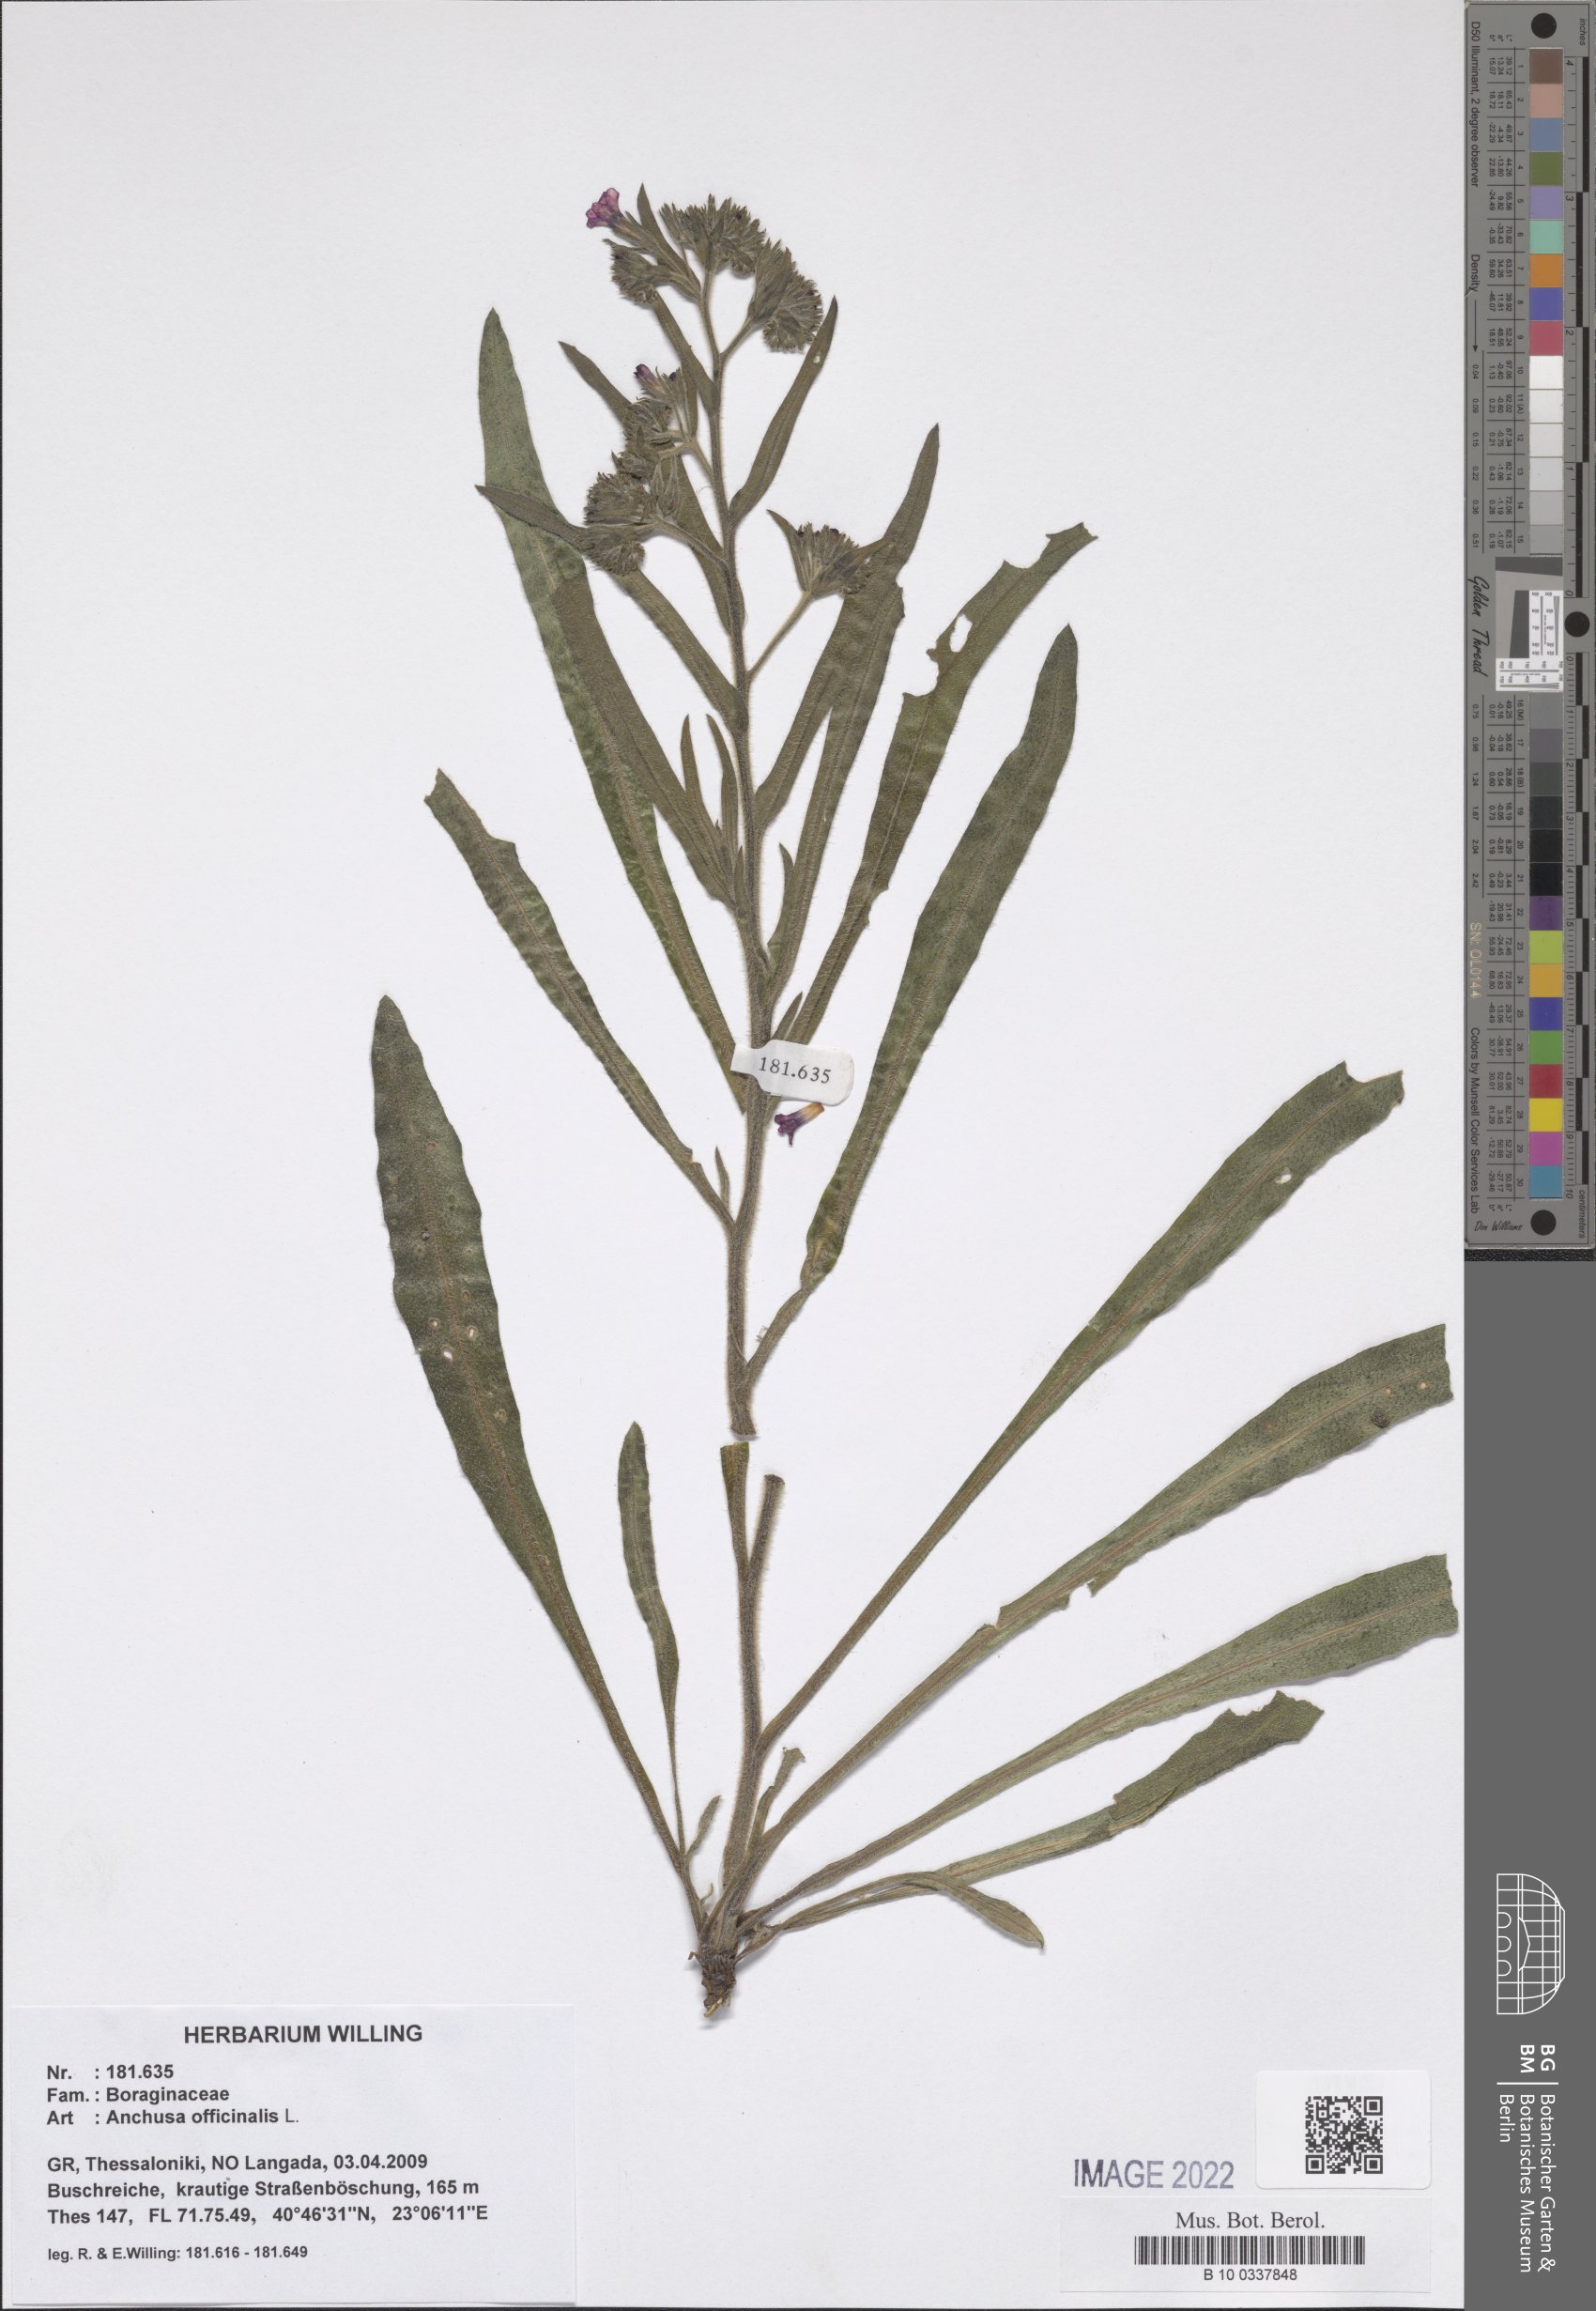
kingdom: Plantae
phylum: Tracheophyta
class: Magnoliopsida
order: Boraginales
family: Boraginaceae
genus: Anchusa
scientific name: Anchusa officinalis
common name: Alkanet
